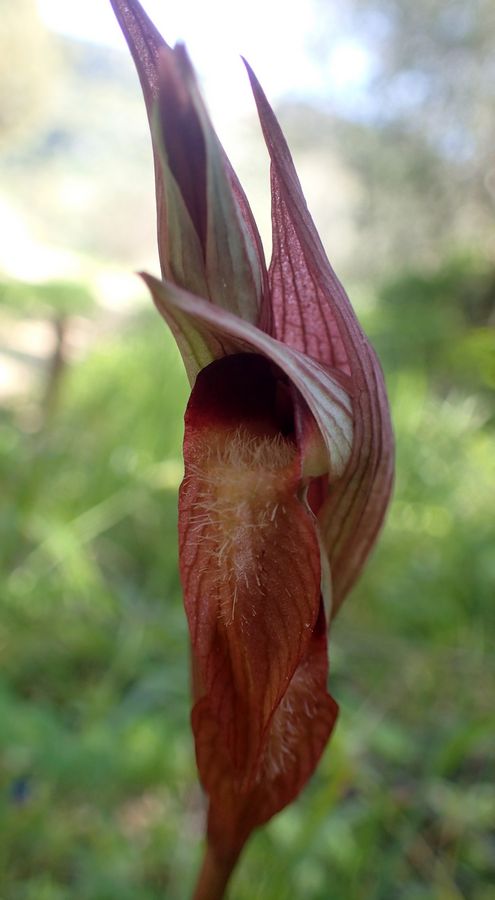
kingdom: Plantae
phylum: Tracheophyta
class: Liliopsida
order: Asparagales
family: Orchidaceae
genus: Serapias
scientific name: Serapias orientalis
